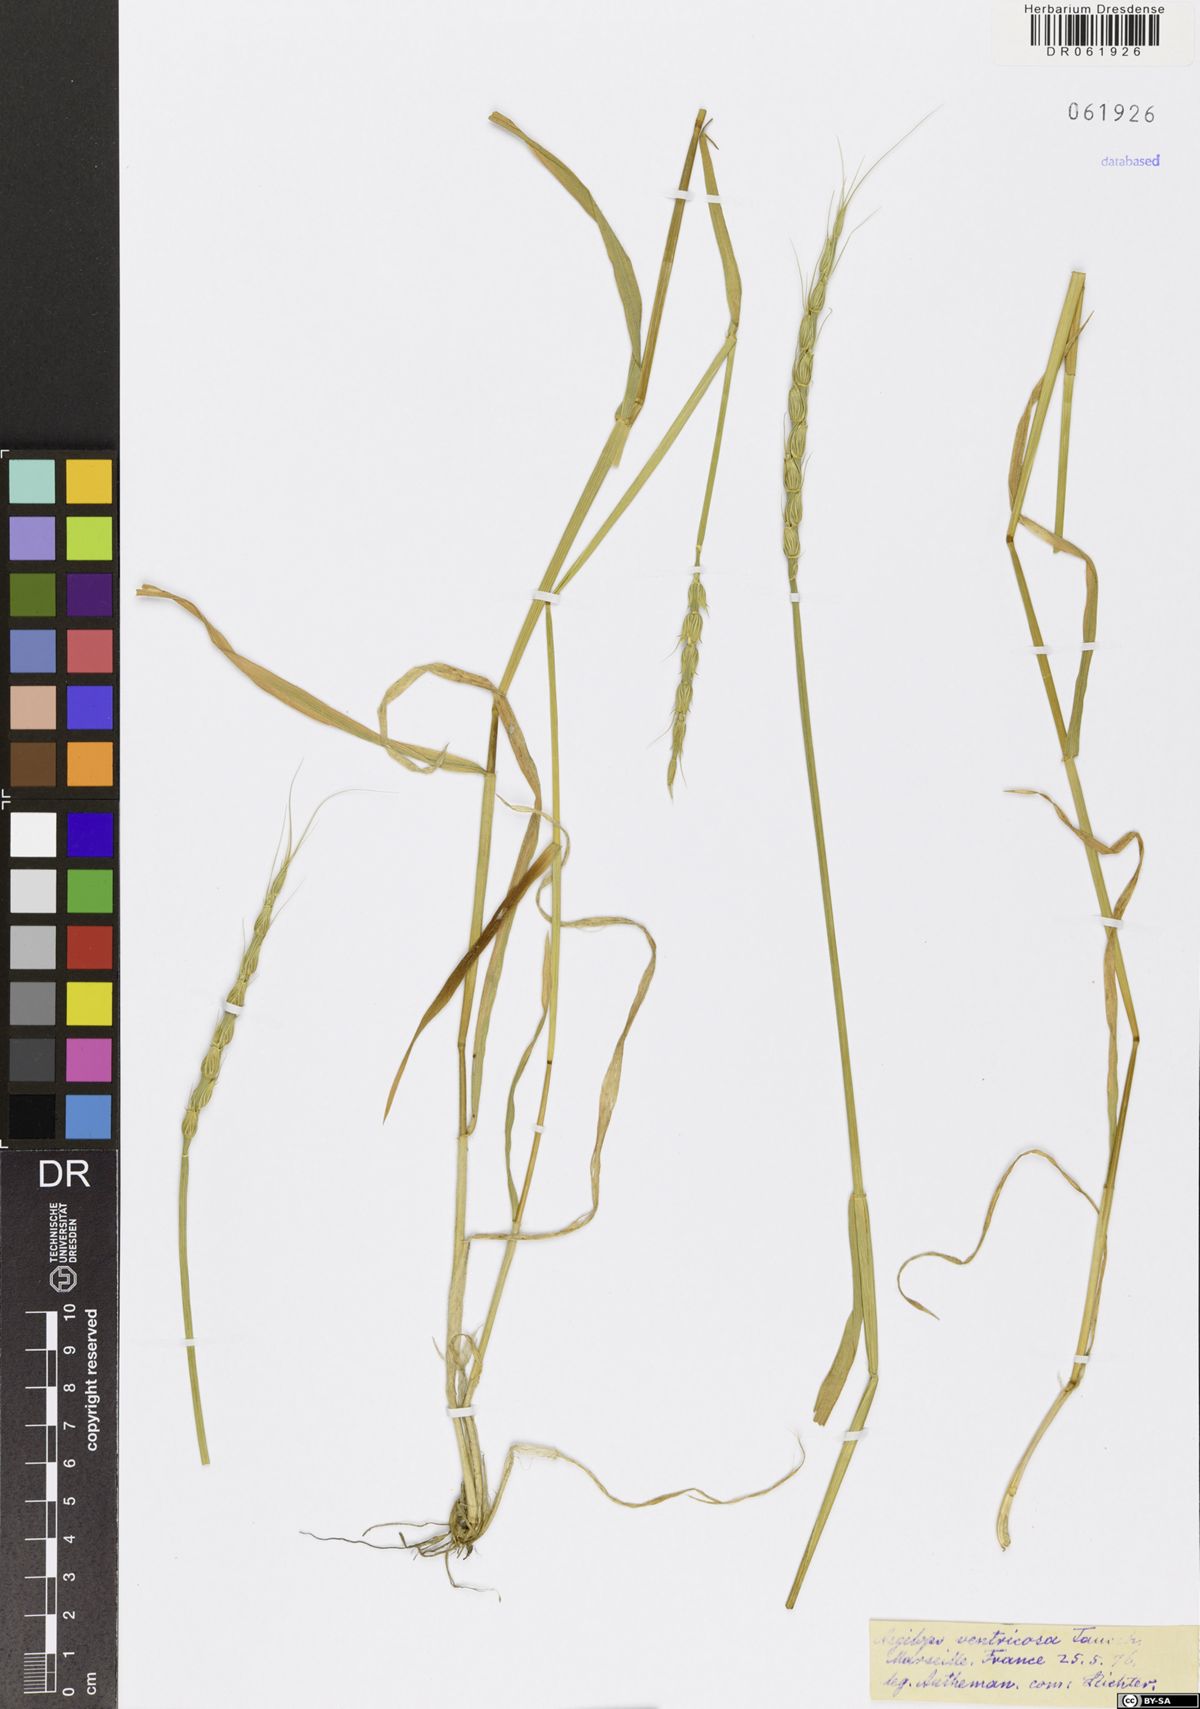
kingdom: Plantae
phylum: Tracheophyta
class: Liliopsida
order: Poales
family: Poaceae
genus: Aegilops
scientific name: Aegilops ventricosa
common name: Swollen goat grass
